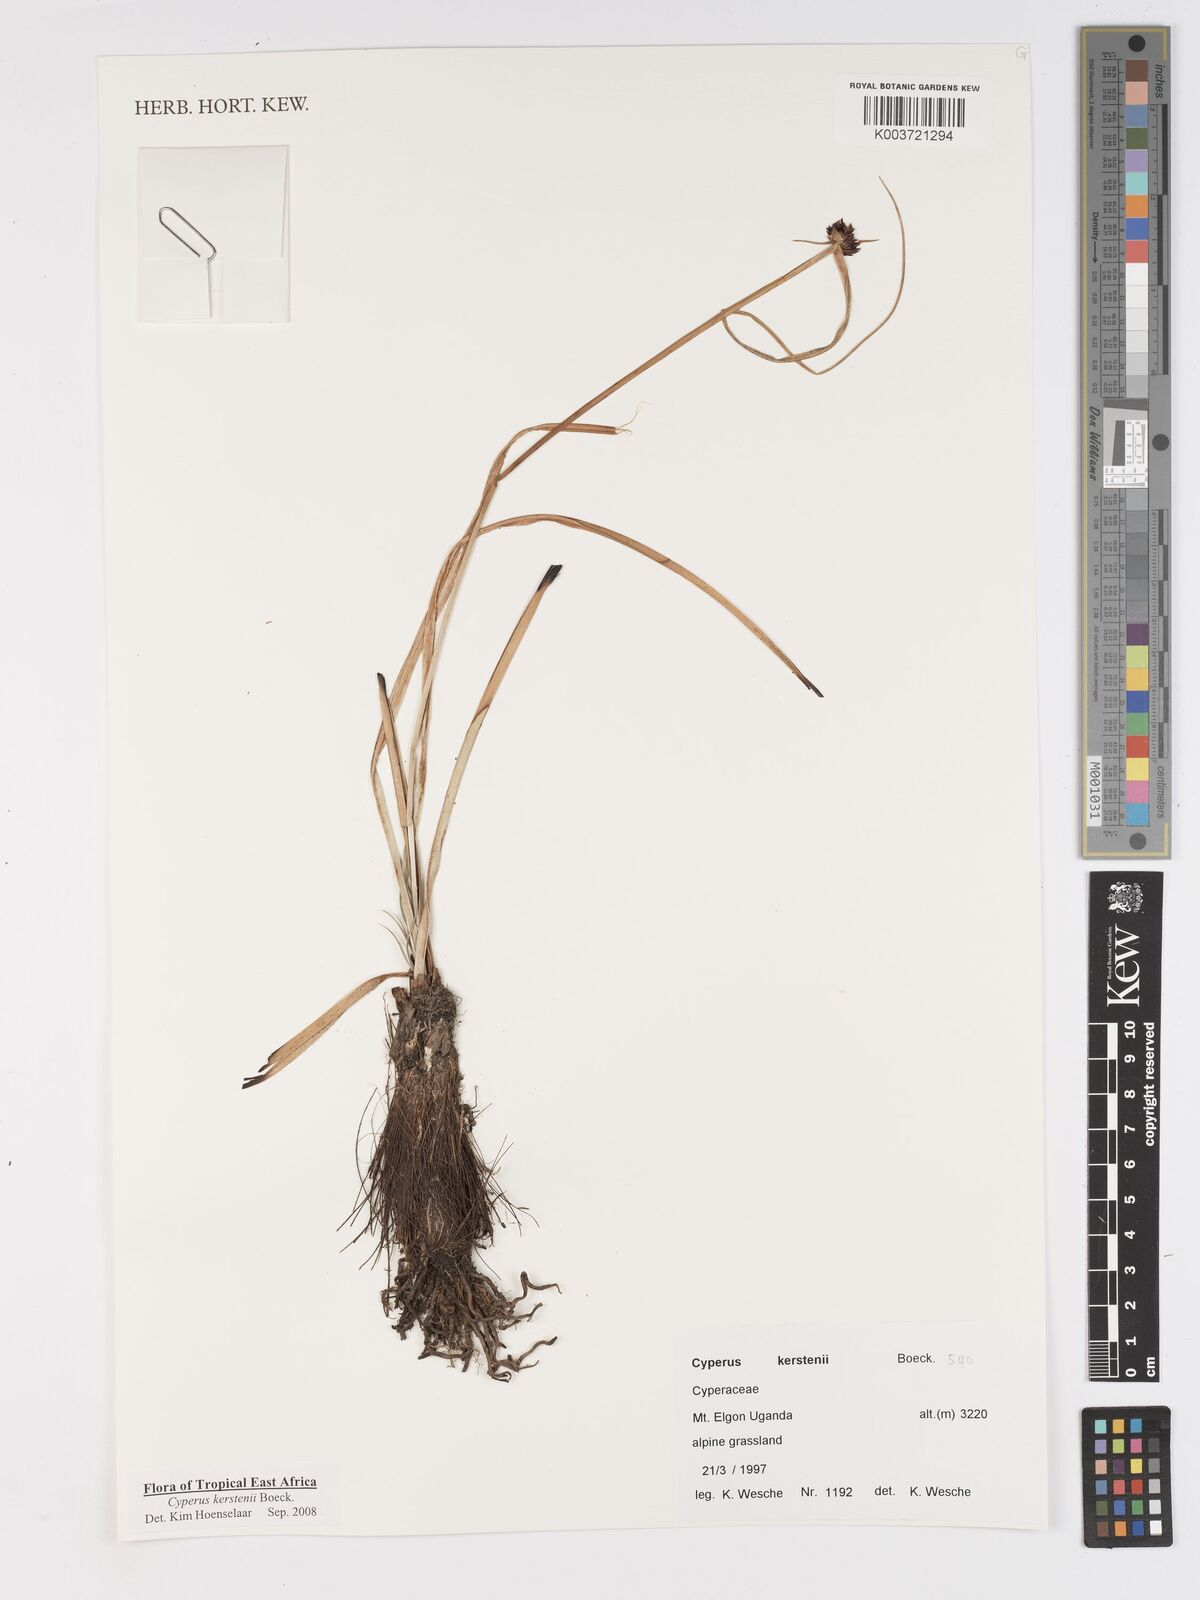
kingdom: Plantae
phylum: Tracheophyta
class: Liliopsida
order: Poales
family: Cyperaceae
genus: Cyperus
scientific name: Cyperus kerstenii
